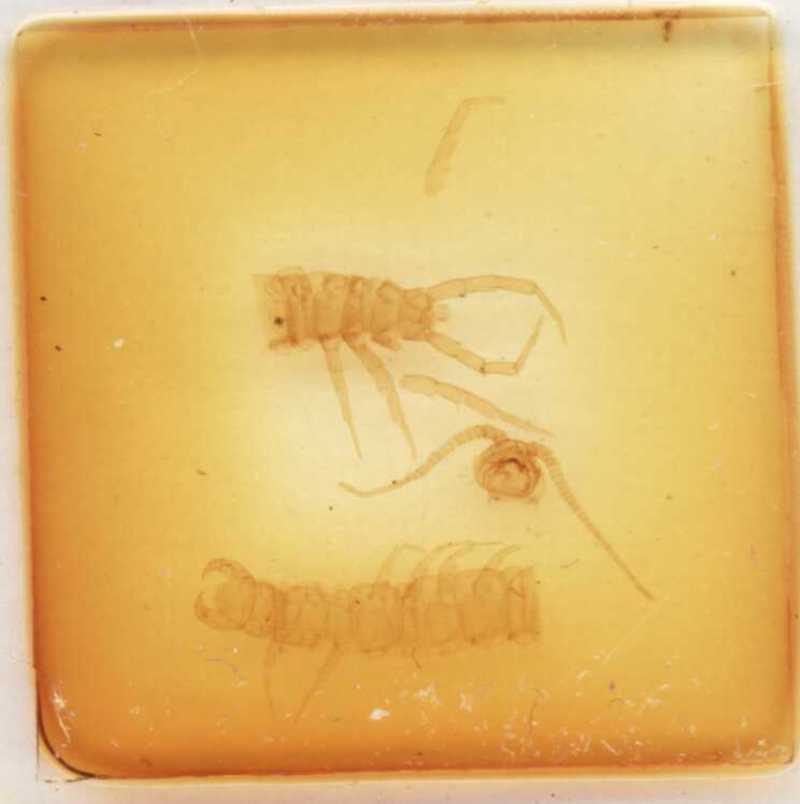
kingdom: Animalia
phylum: Arthropoda
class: Chilopoda
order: Lithobiomorpha
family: Lithobiidae
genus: Lithobius
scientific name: Lithobius subtilis
